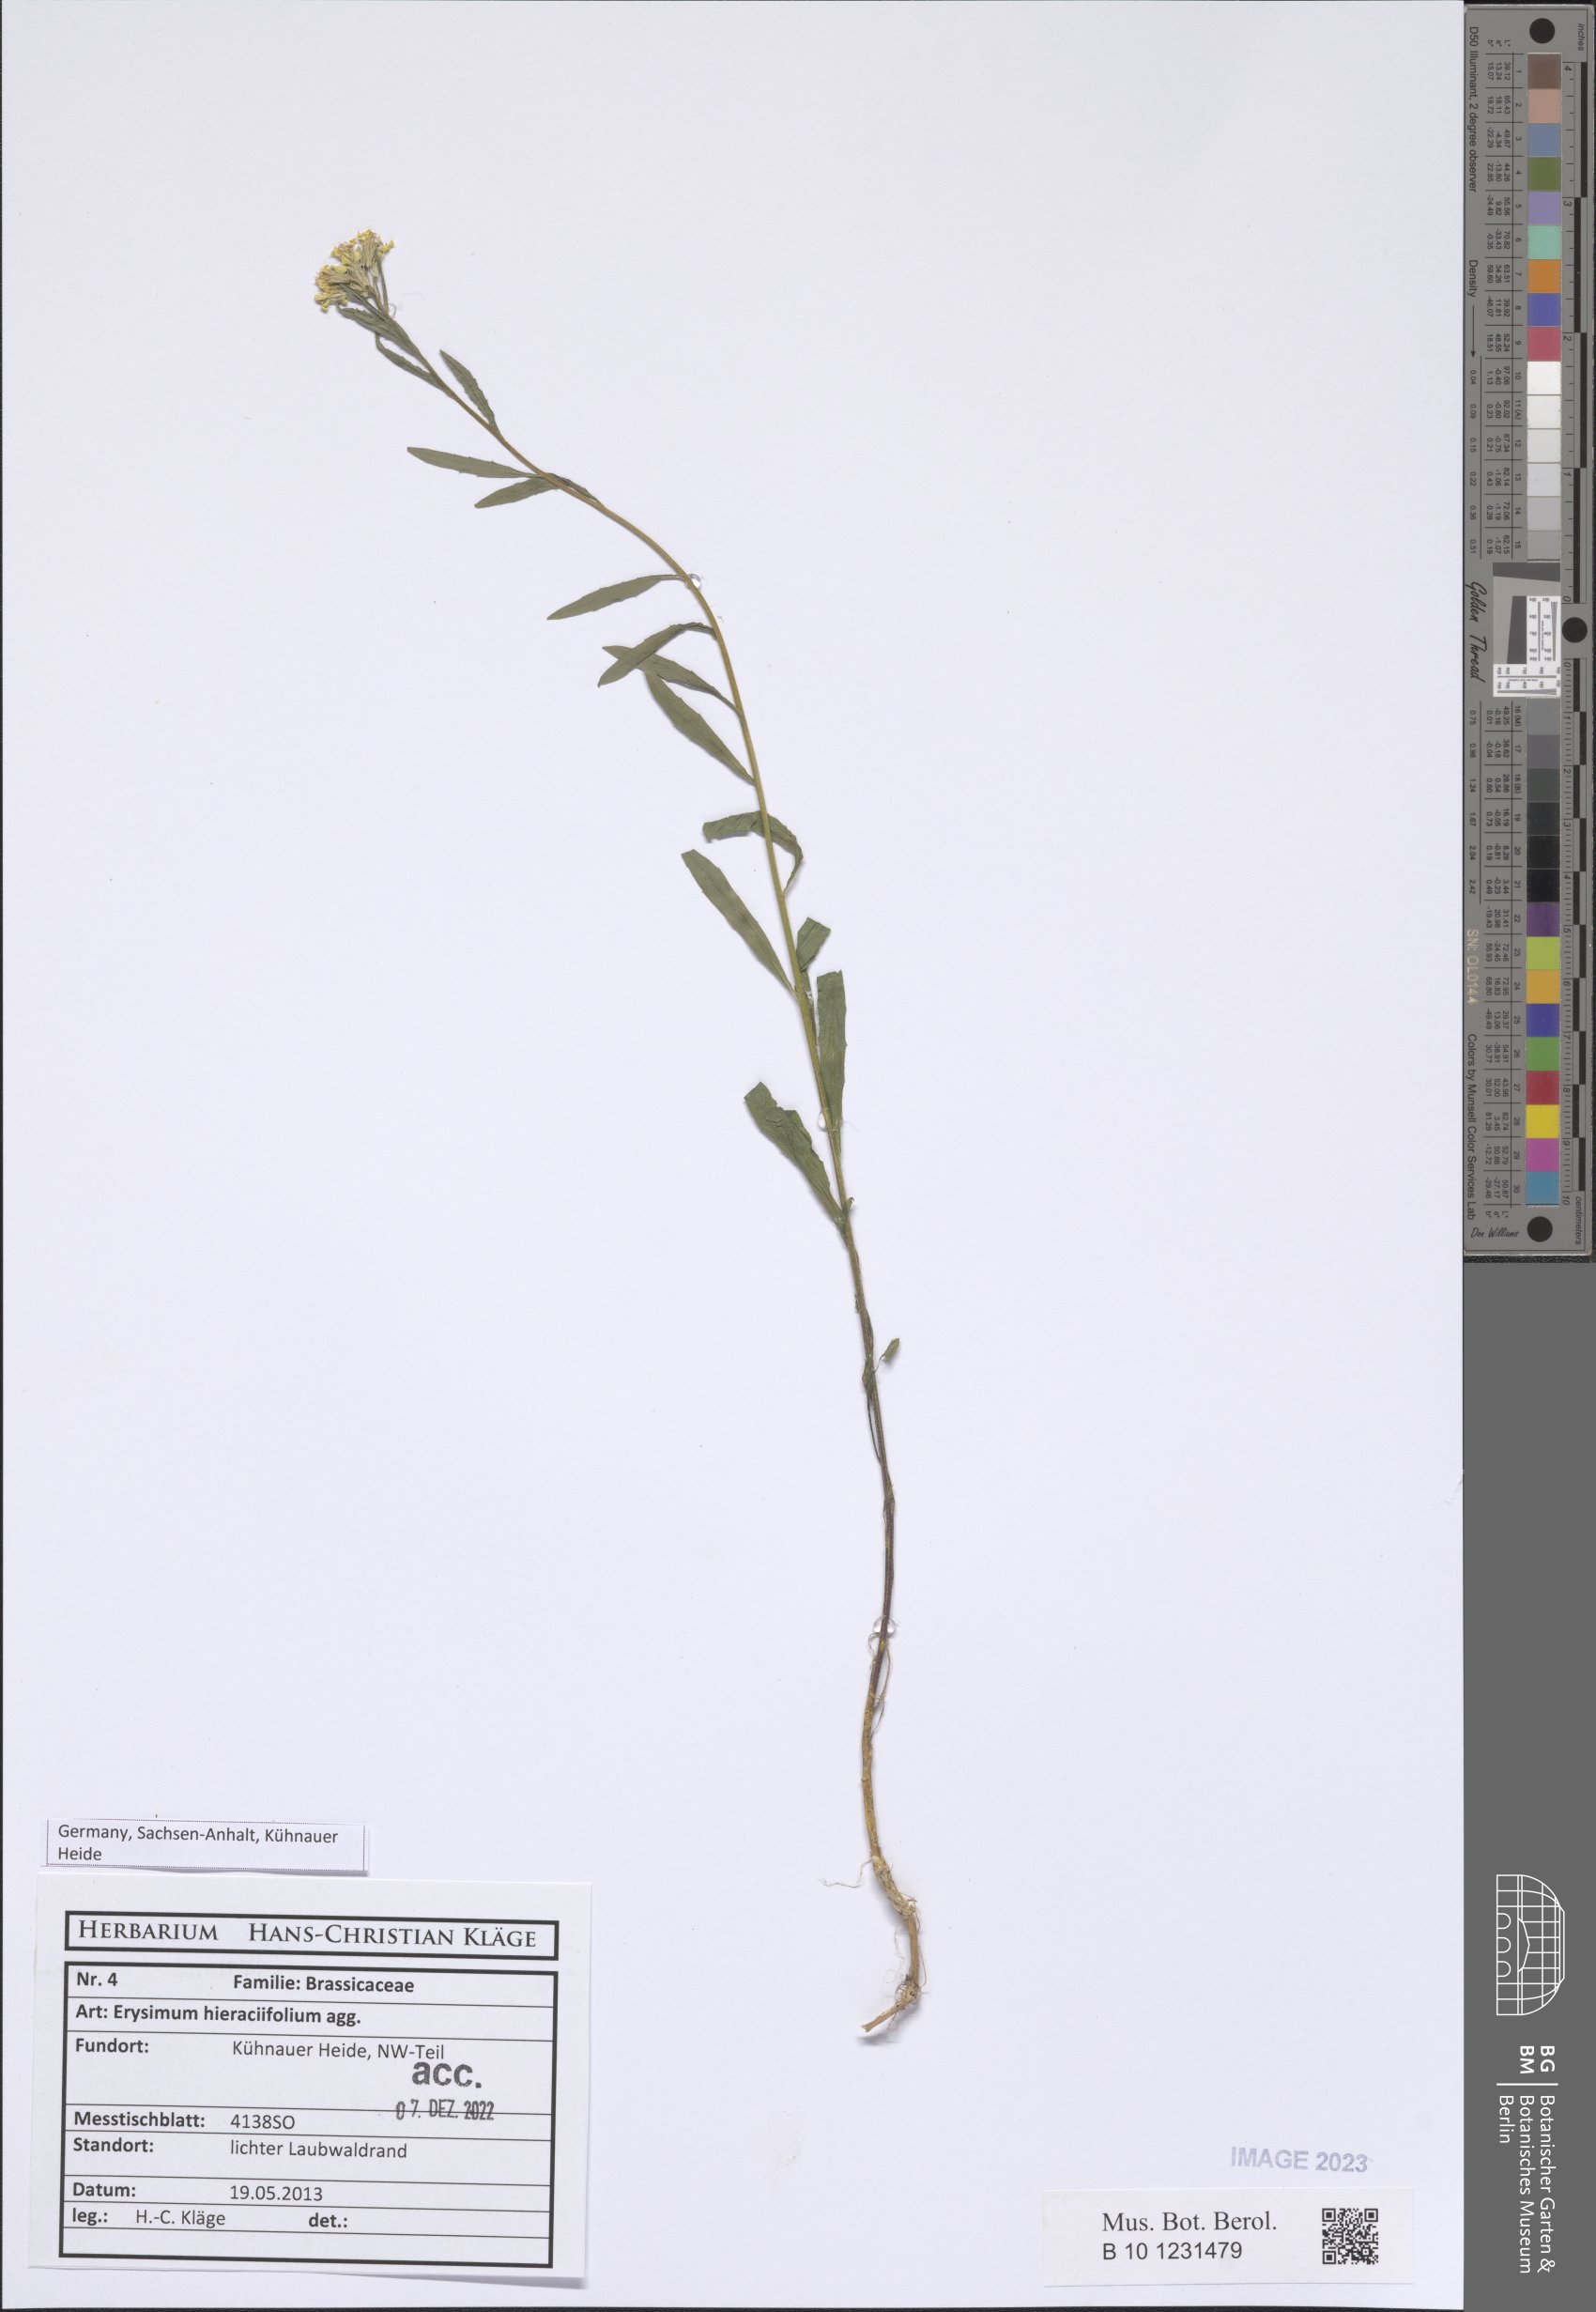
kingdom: Plantae
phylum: Tracheophyta
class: Magnoliopsida
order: Brassicales
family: Brassicaceae
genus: Erysimum
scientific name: Erysimum hieraciifolium
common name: European wallflower
